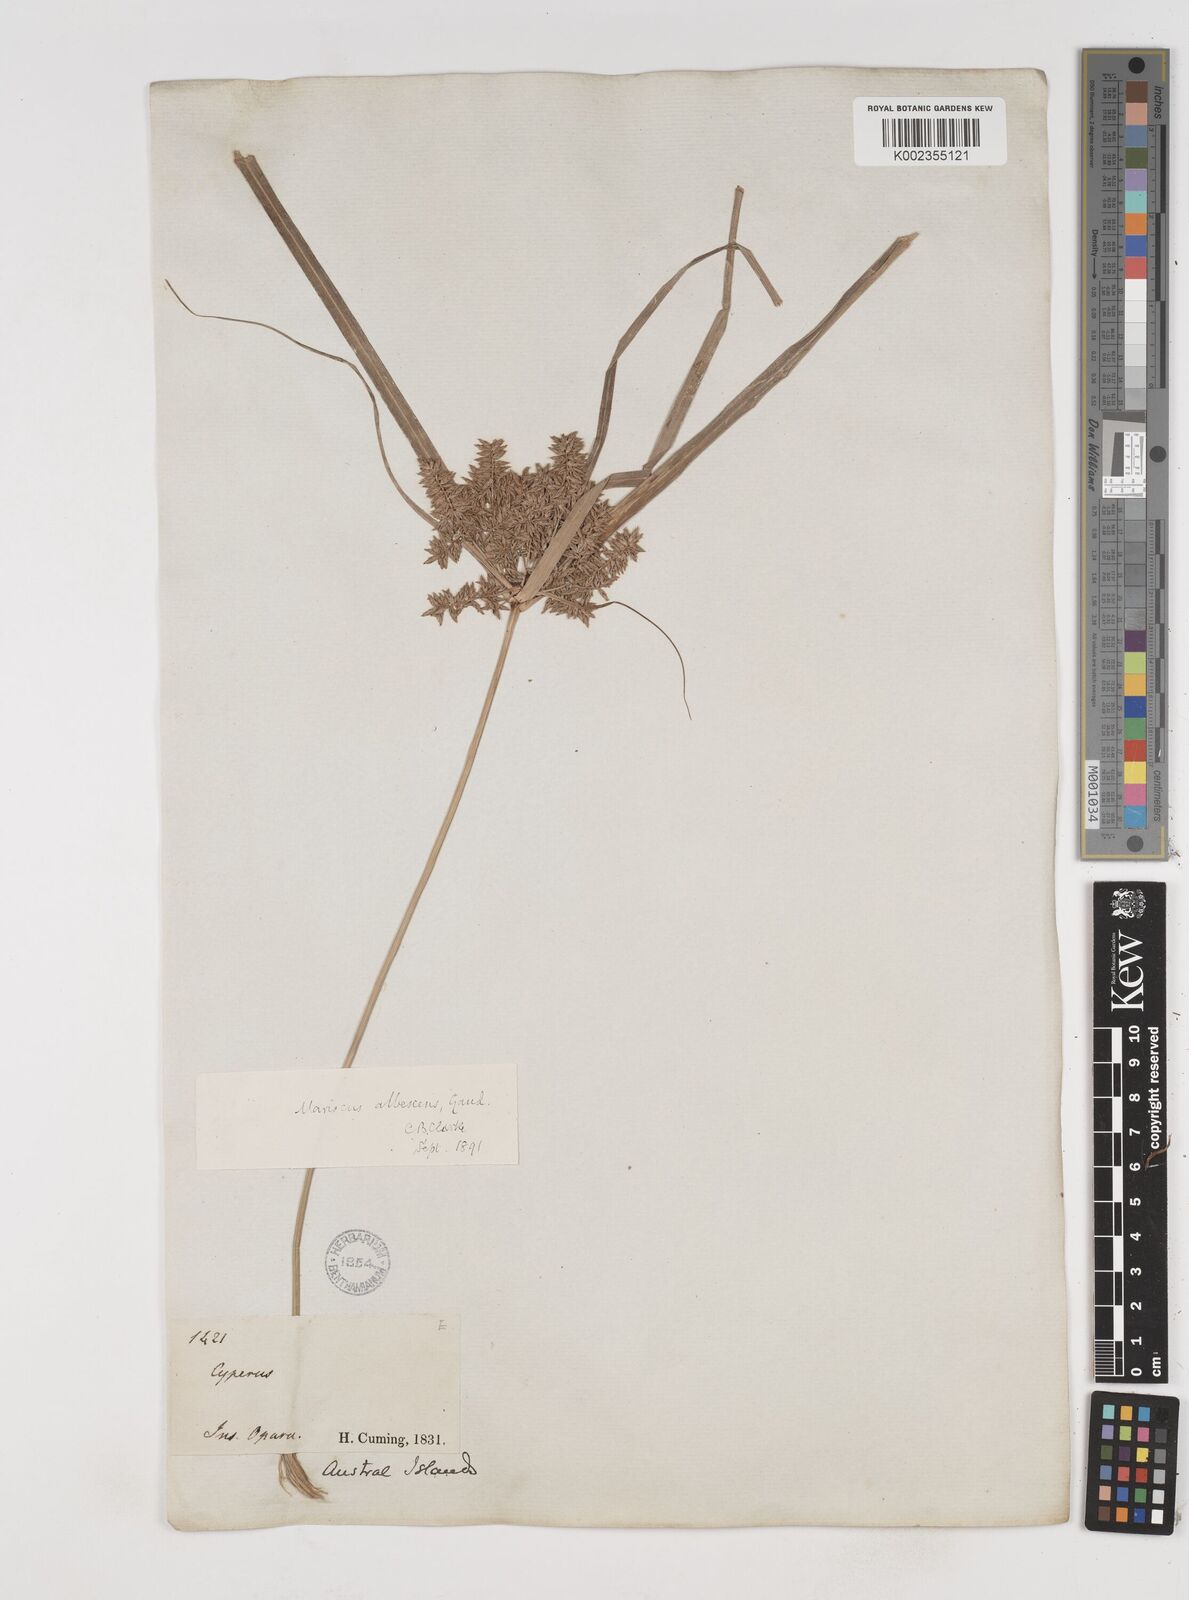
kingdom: Plantae
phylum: Tracheophyta
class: Liliopsida
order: Poales
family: Cyperaceae
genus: Cyperus
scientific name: Cyperus javanicus
